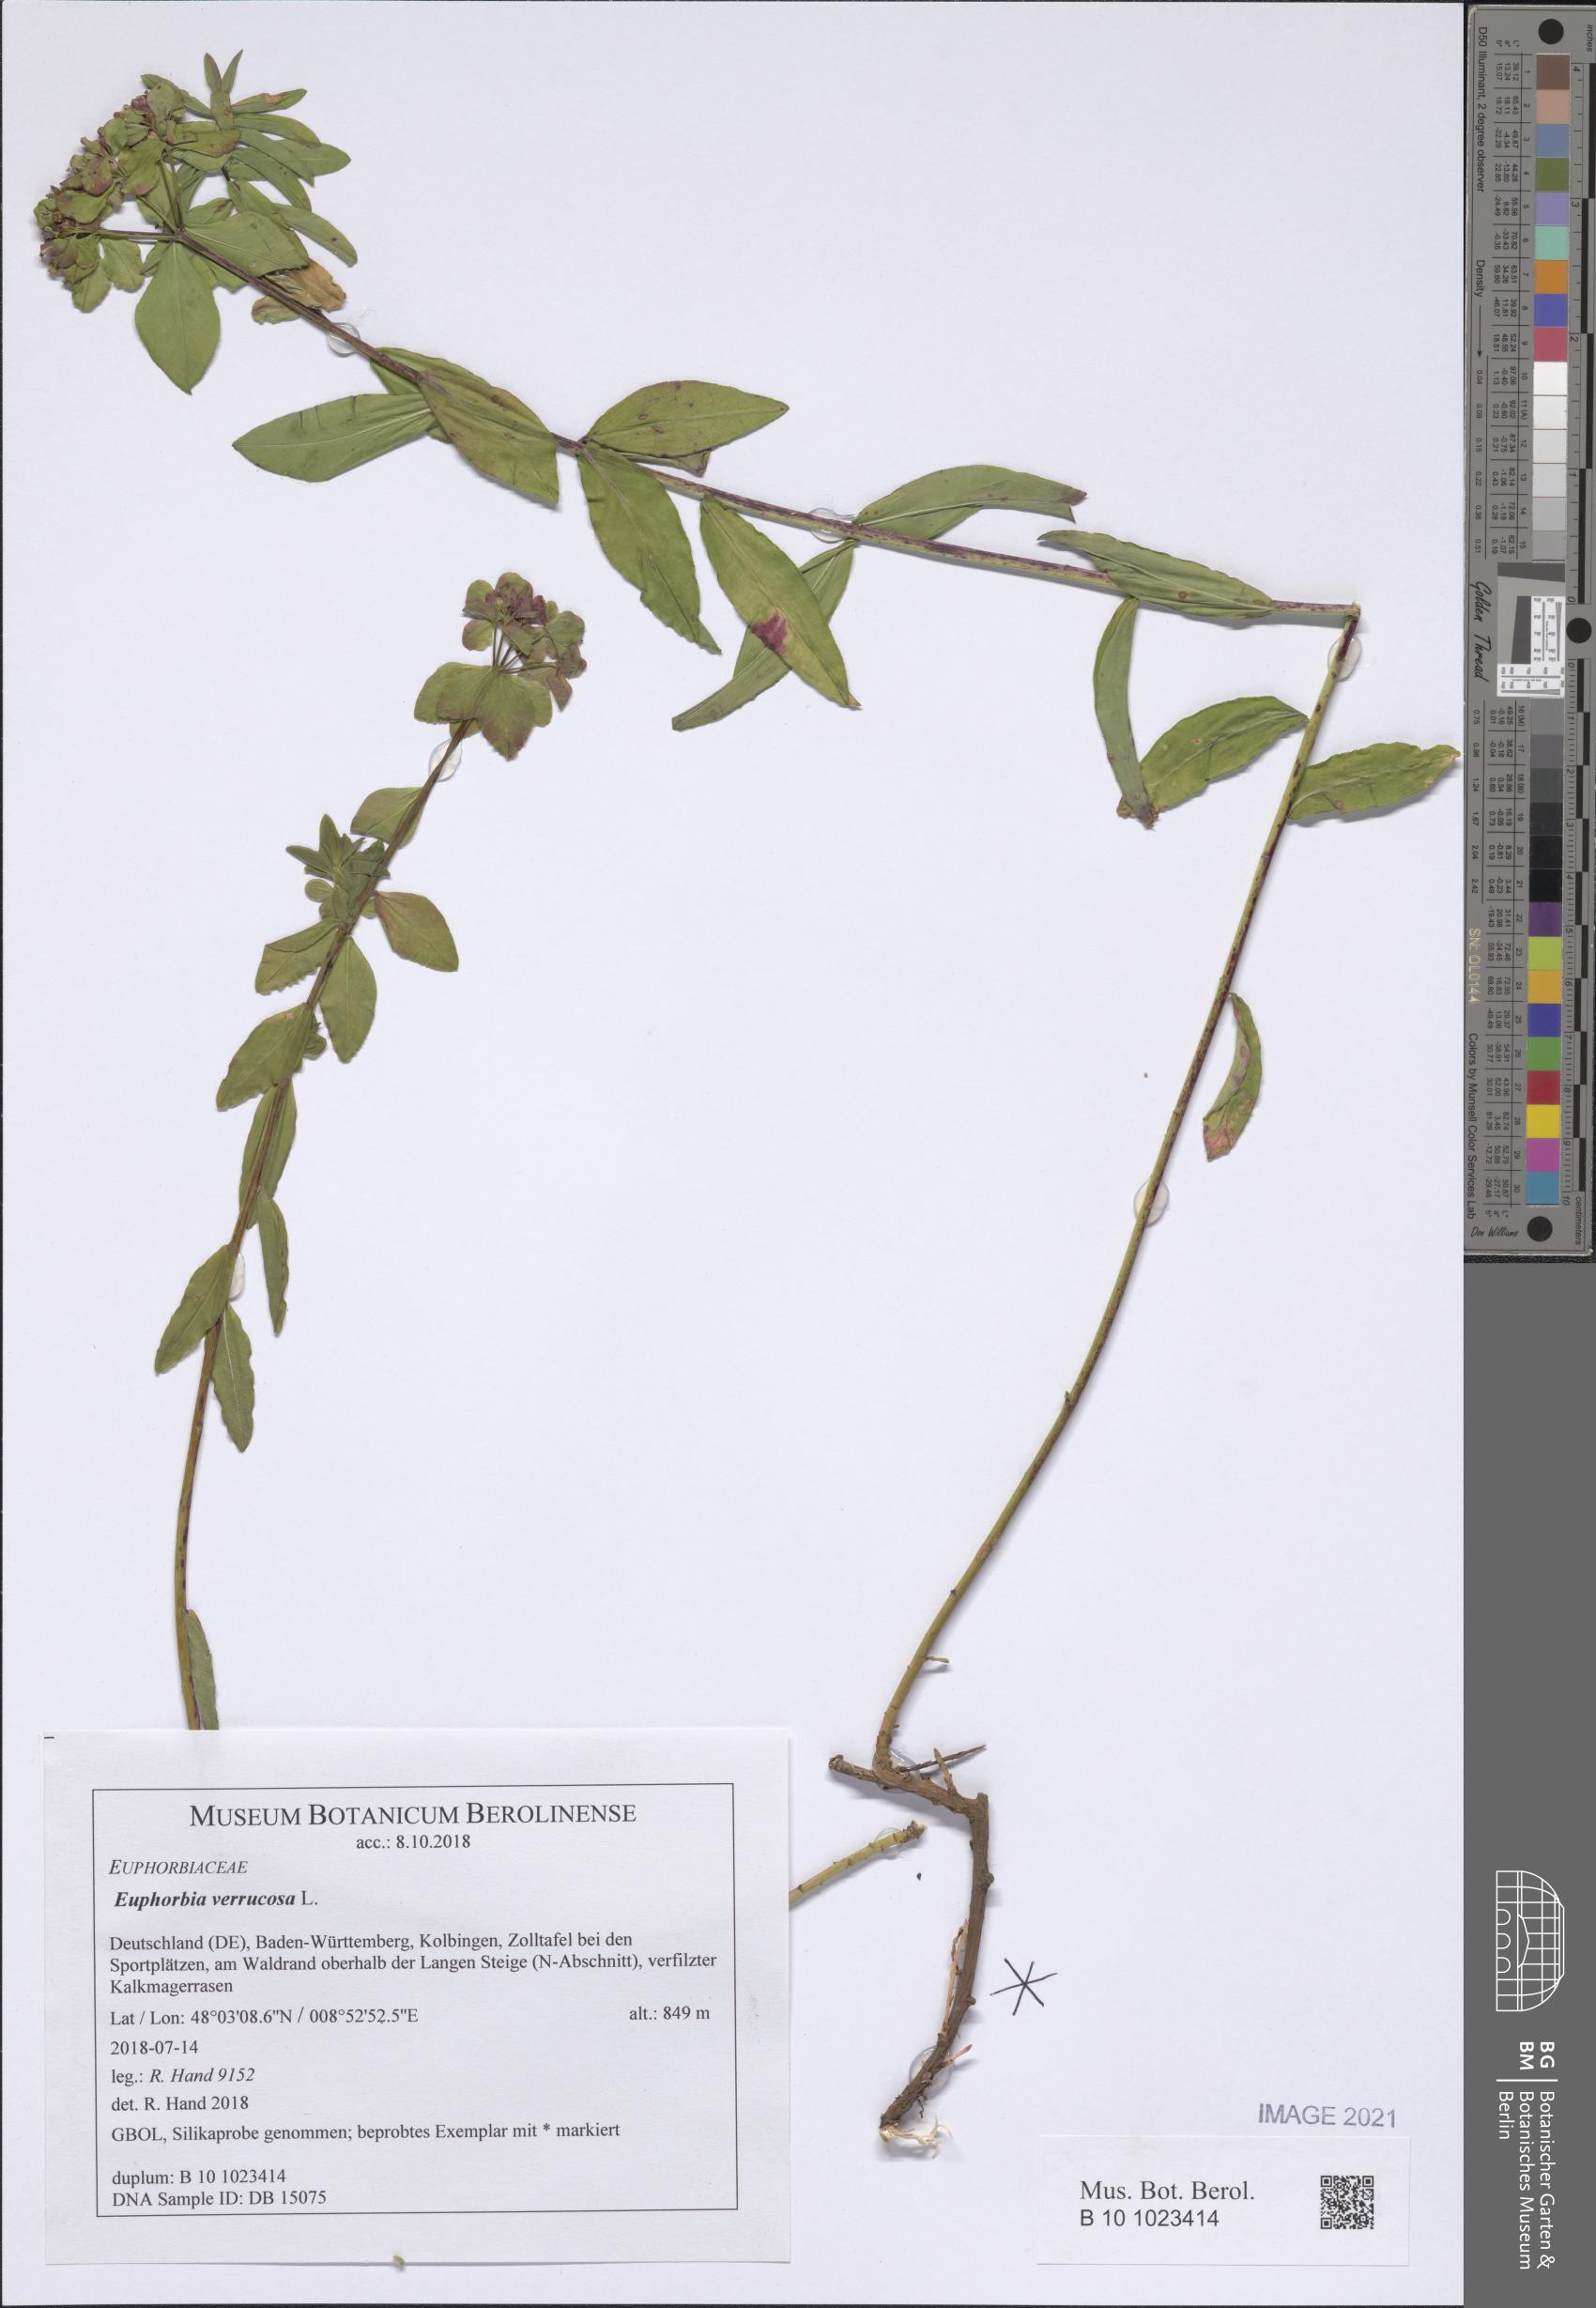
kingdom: Plantae
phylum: Tracheophyta
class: Magnoliopsida
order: Malpighiales
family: Euphorbiaceae
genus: Euphorbia
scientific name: Euphorbia verrucosa
